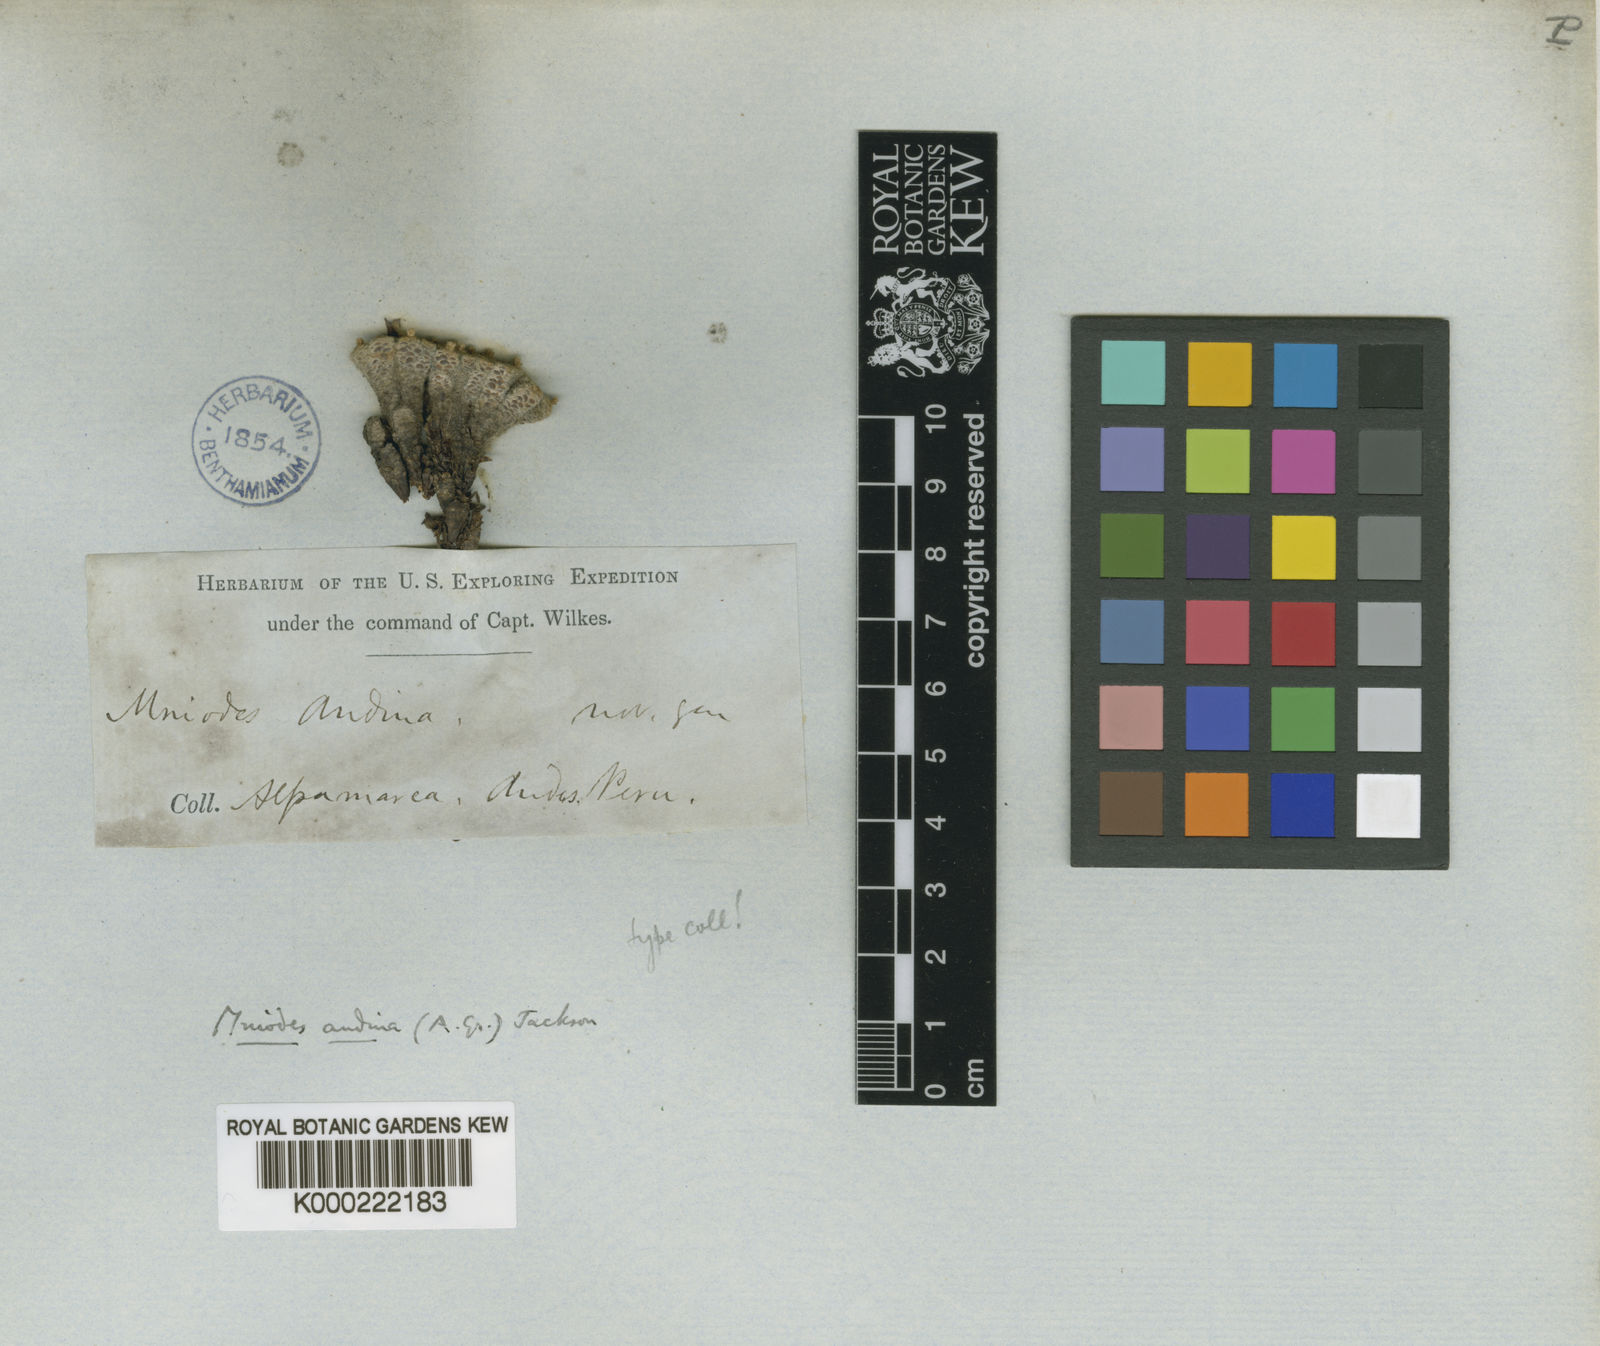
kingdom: Plantae
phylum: Tracheophyta
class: Magnoliopsida
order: Asterales
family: Asteraceae
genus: Mniodes
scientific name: Mniodes
